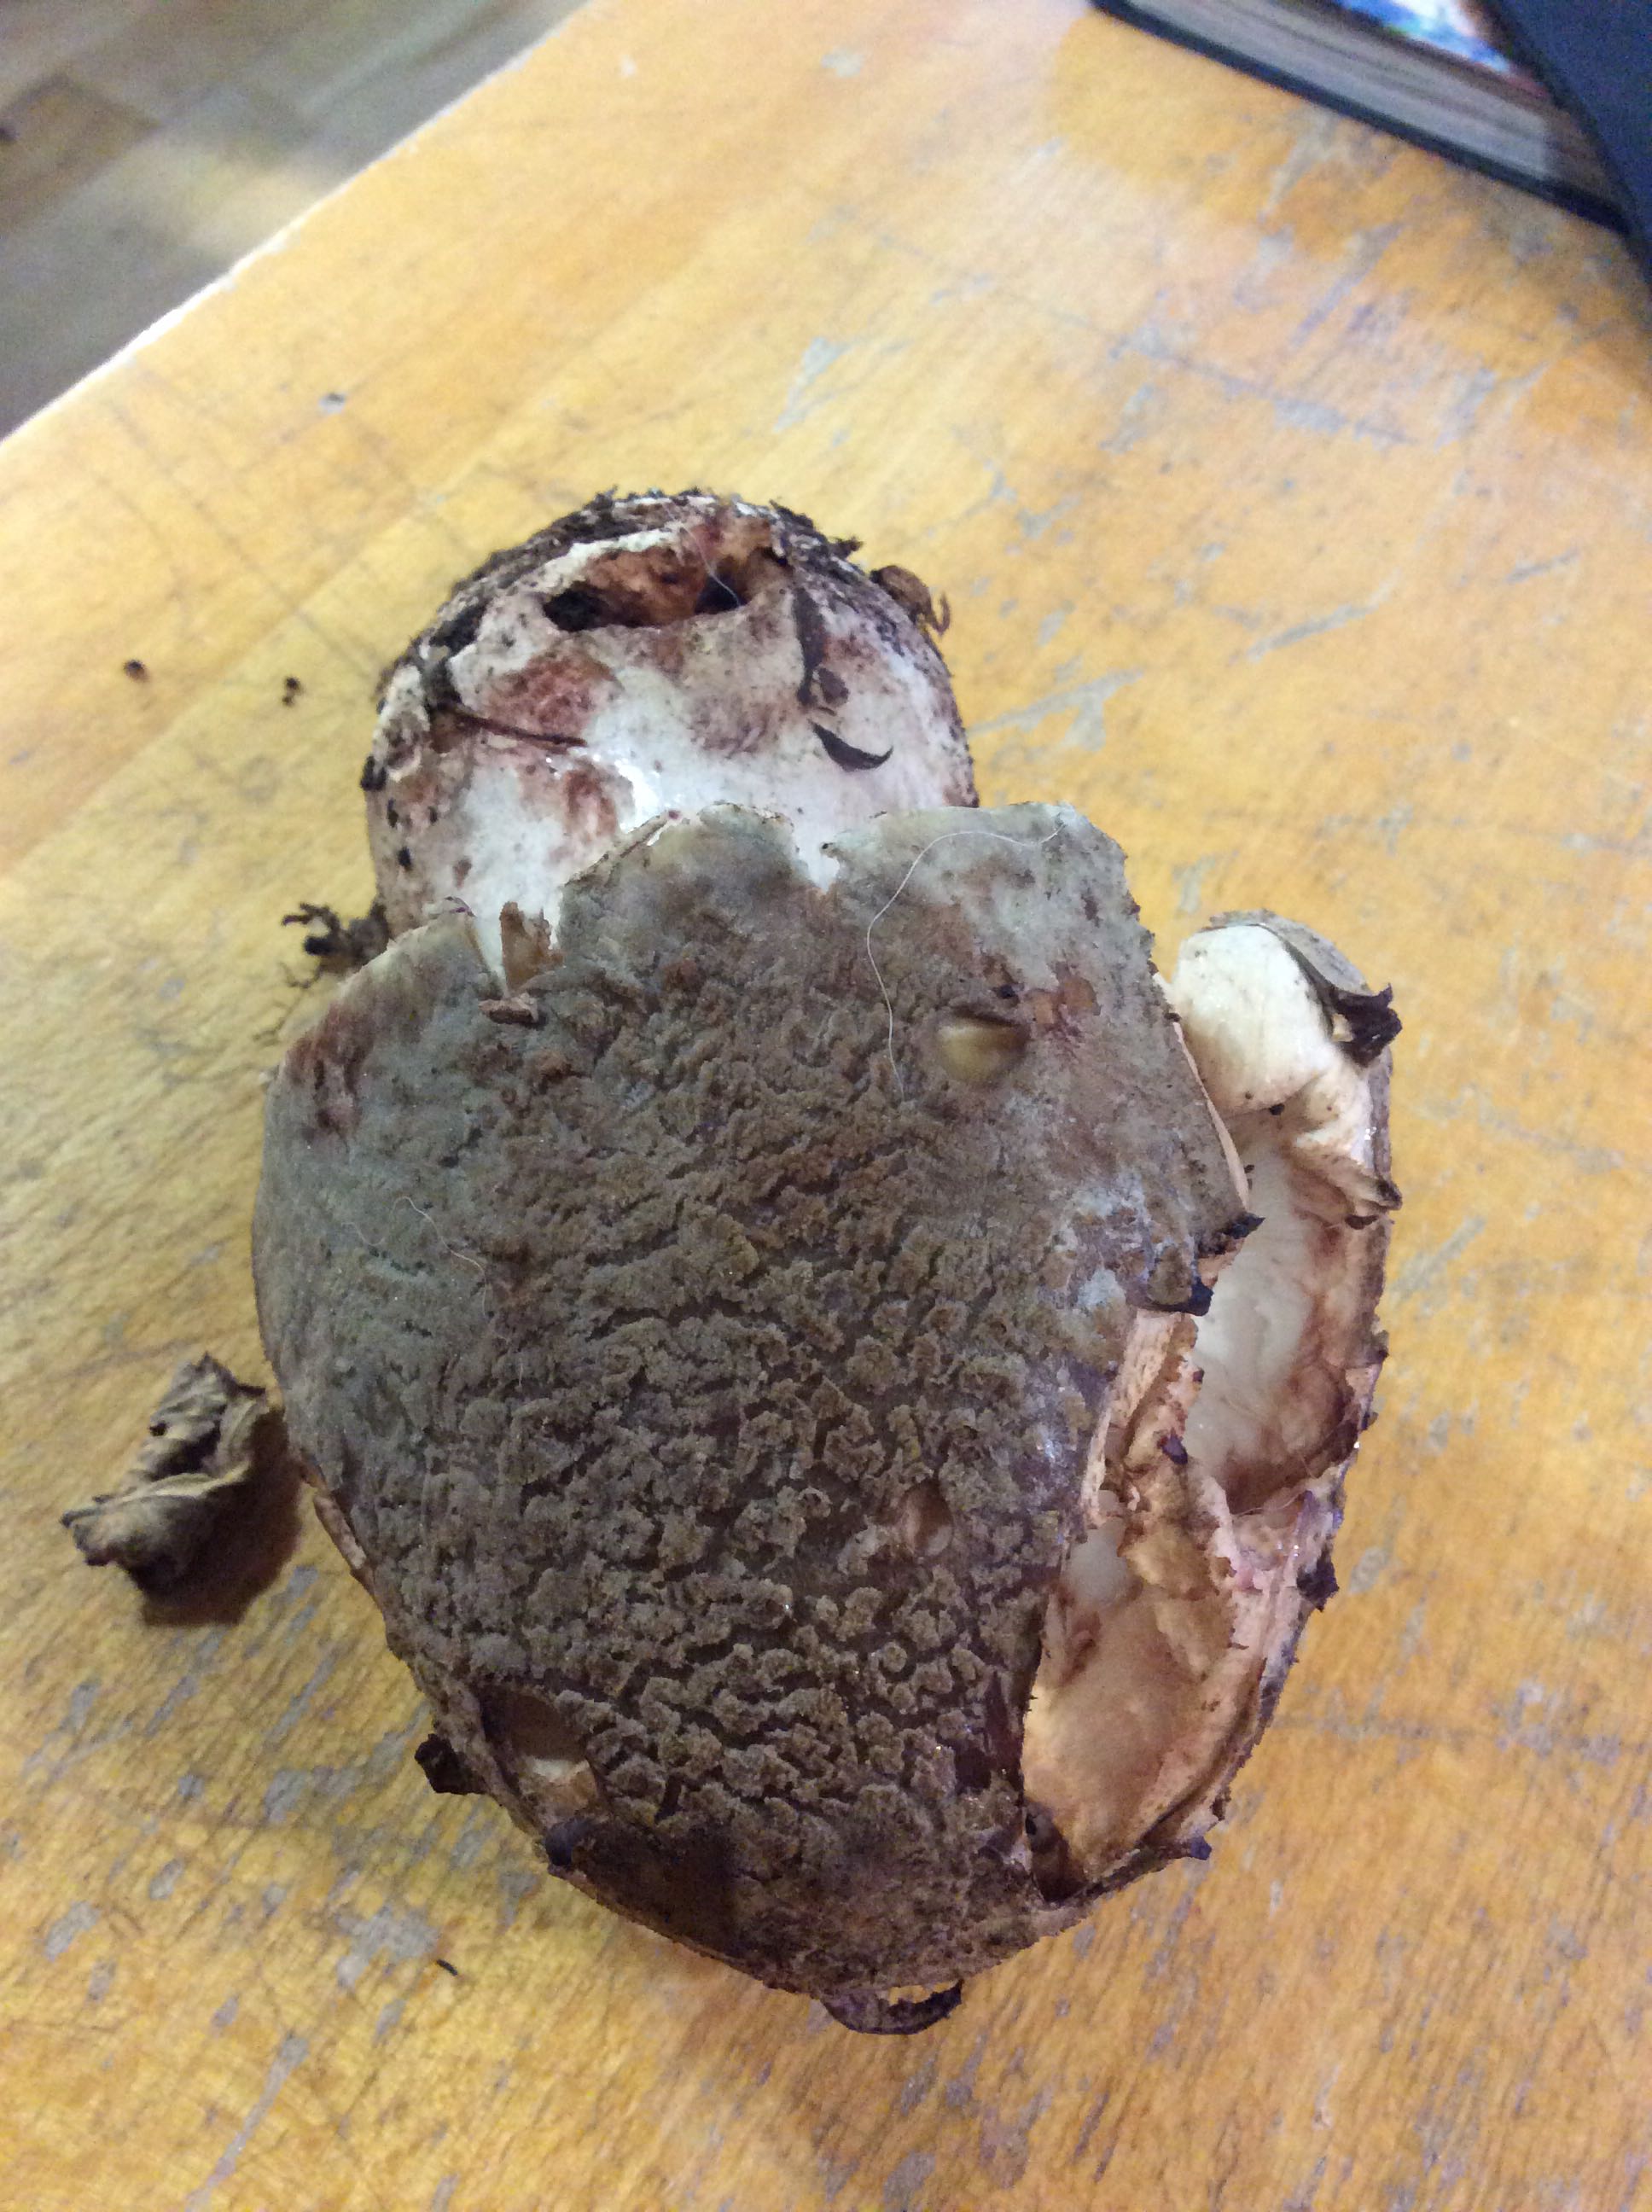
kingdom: Fungi
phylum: Basidiomycota
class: Agaricomycetes
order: Agaricales
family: Amanitaceae
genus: Amanita
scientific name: Amanita rubescens
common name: rødmende fluesvamp
